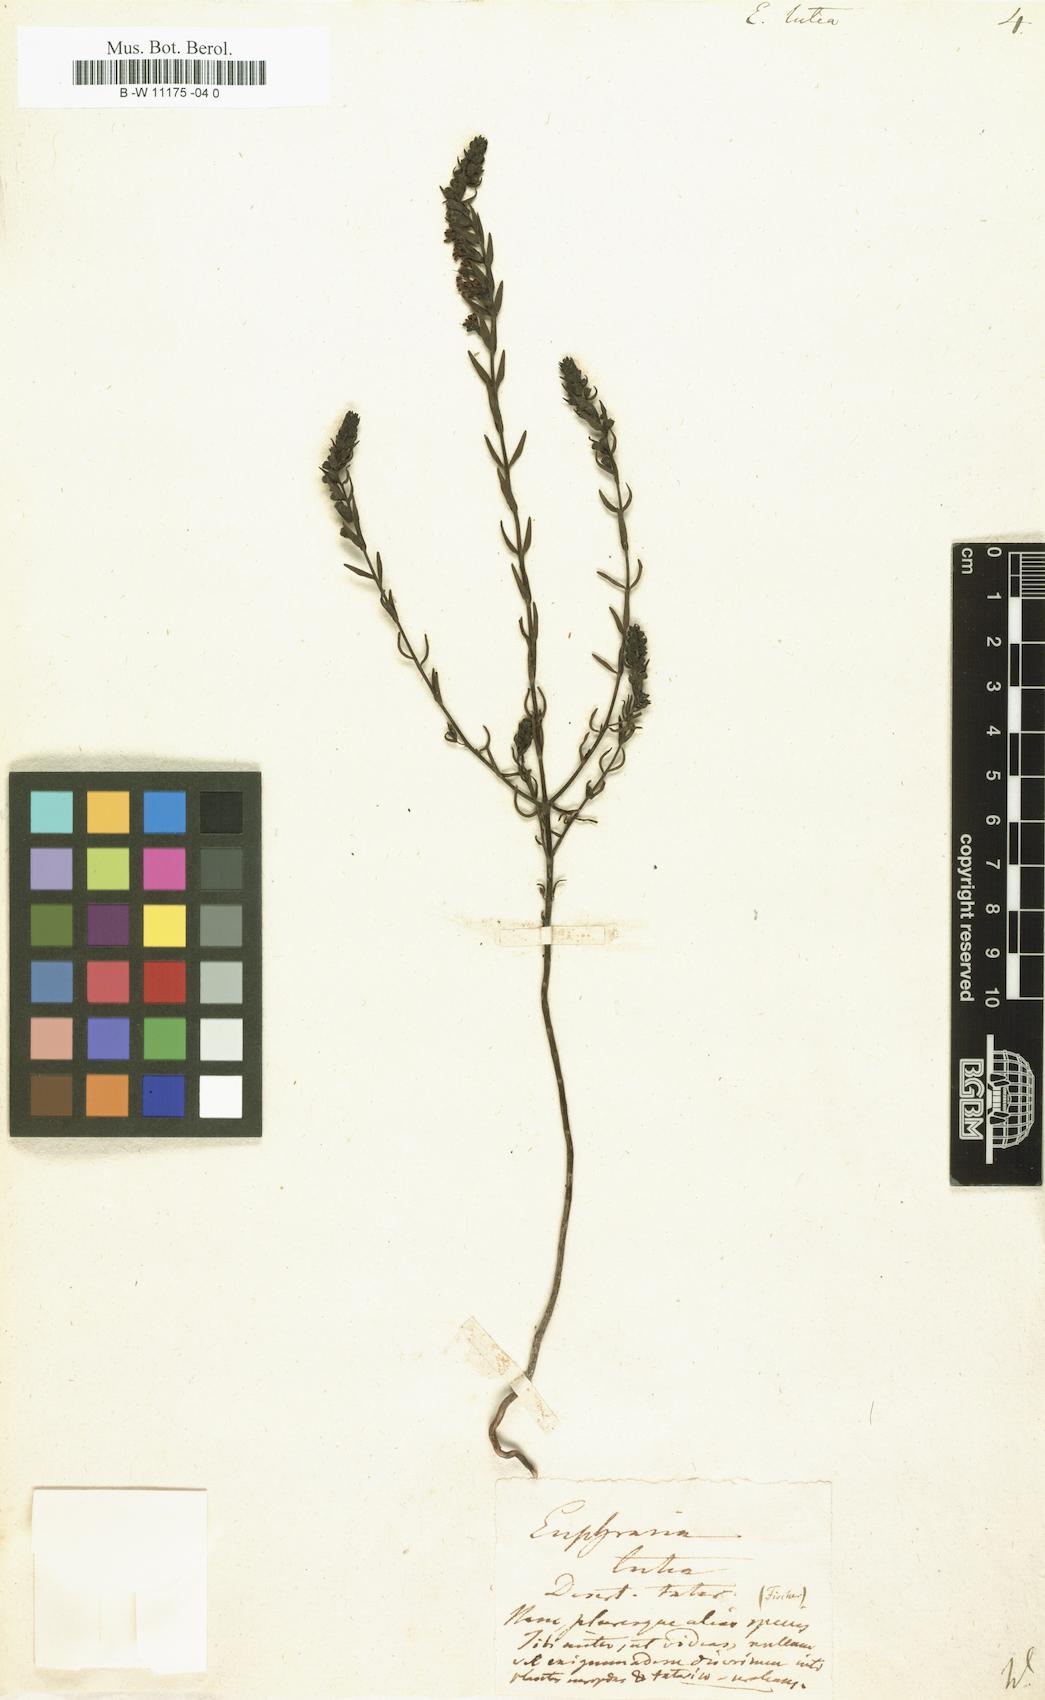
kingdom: Plantae
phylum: Tracheophyta
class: Magnoliopsida
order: Lamiales
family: Orobanchaceae
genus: Odontites
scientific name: Odontites
